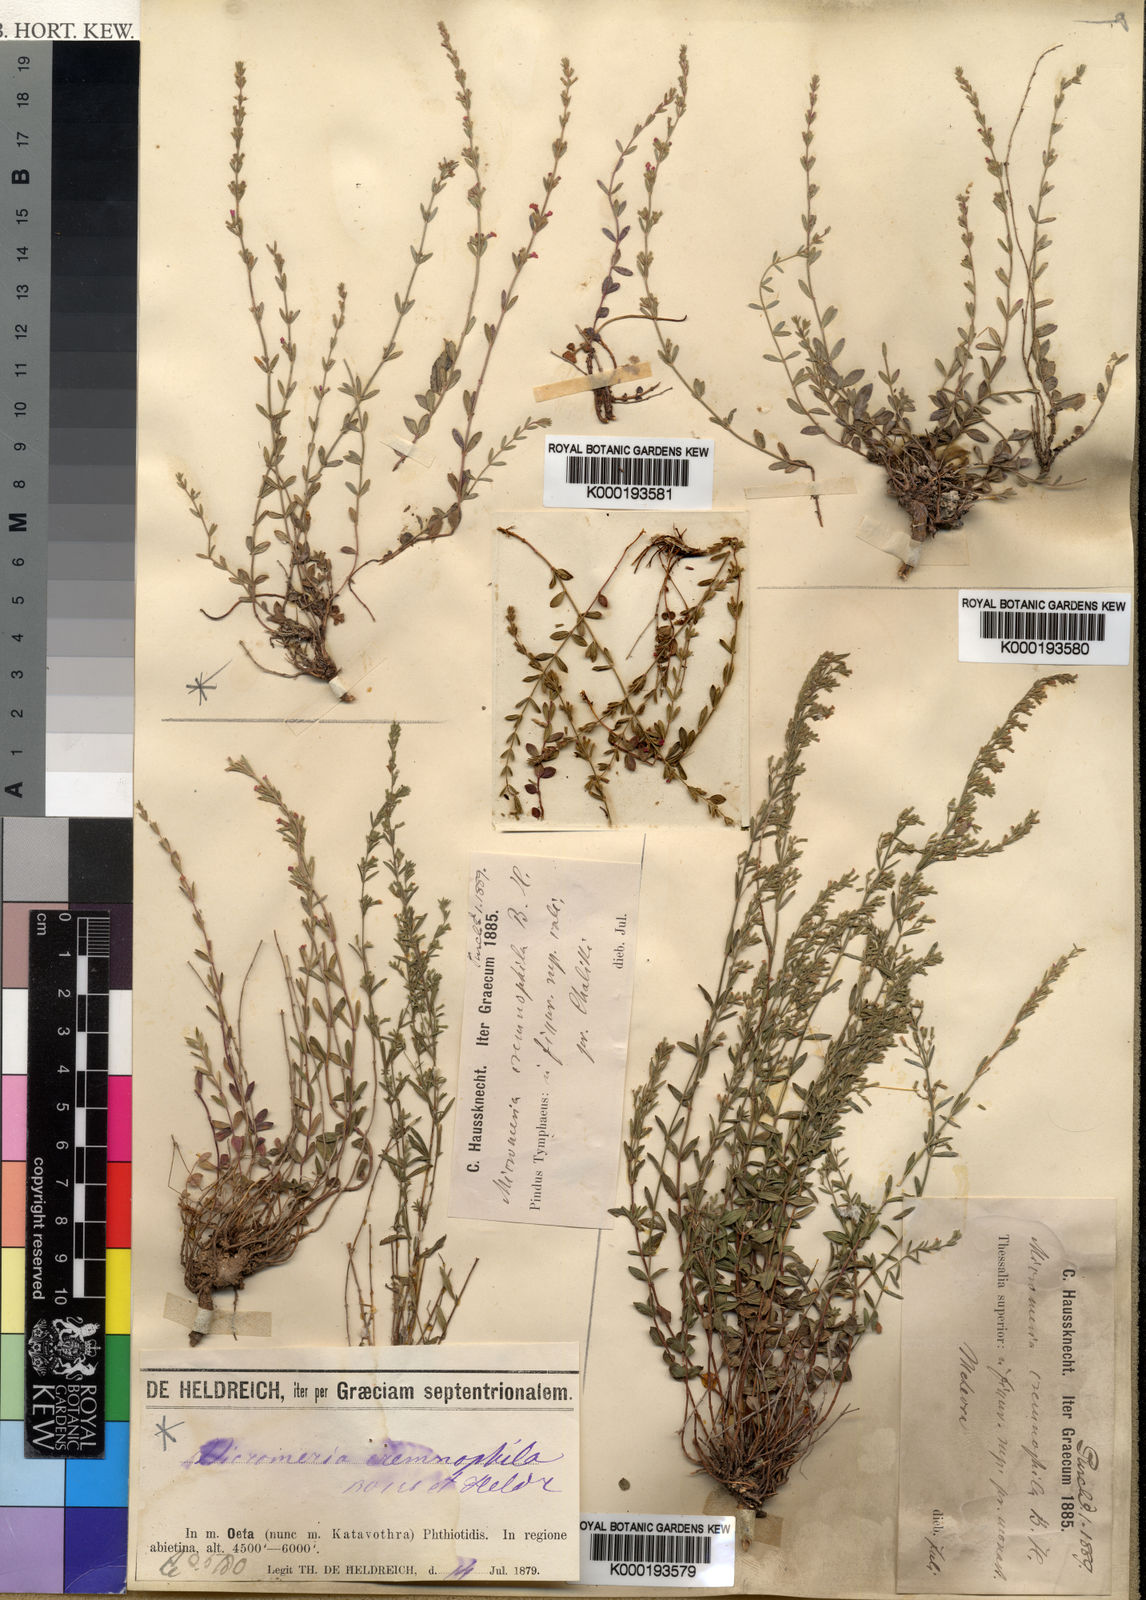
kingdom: Plantae
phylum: Tracheophyta
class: Magnoliopsida
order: Lamiales
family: Lamiaceae
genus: Micromeria
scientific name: Micromeria cremnophila
